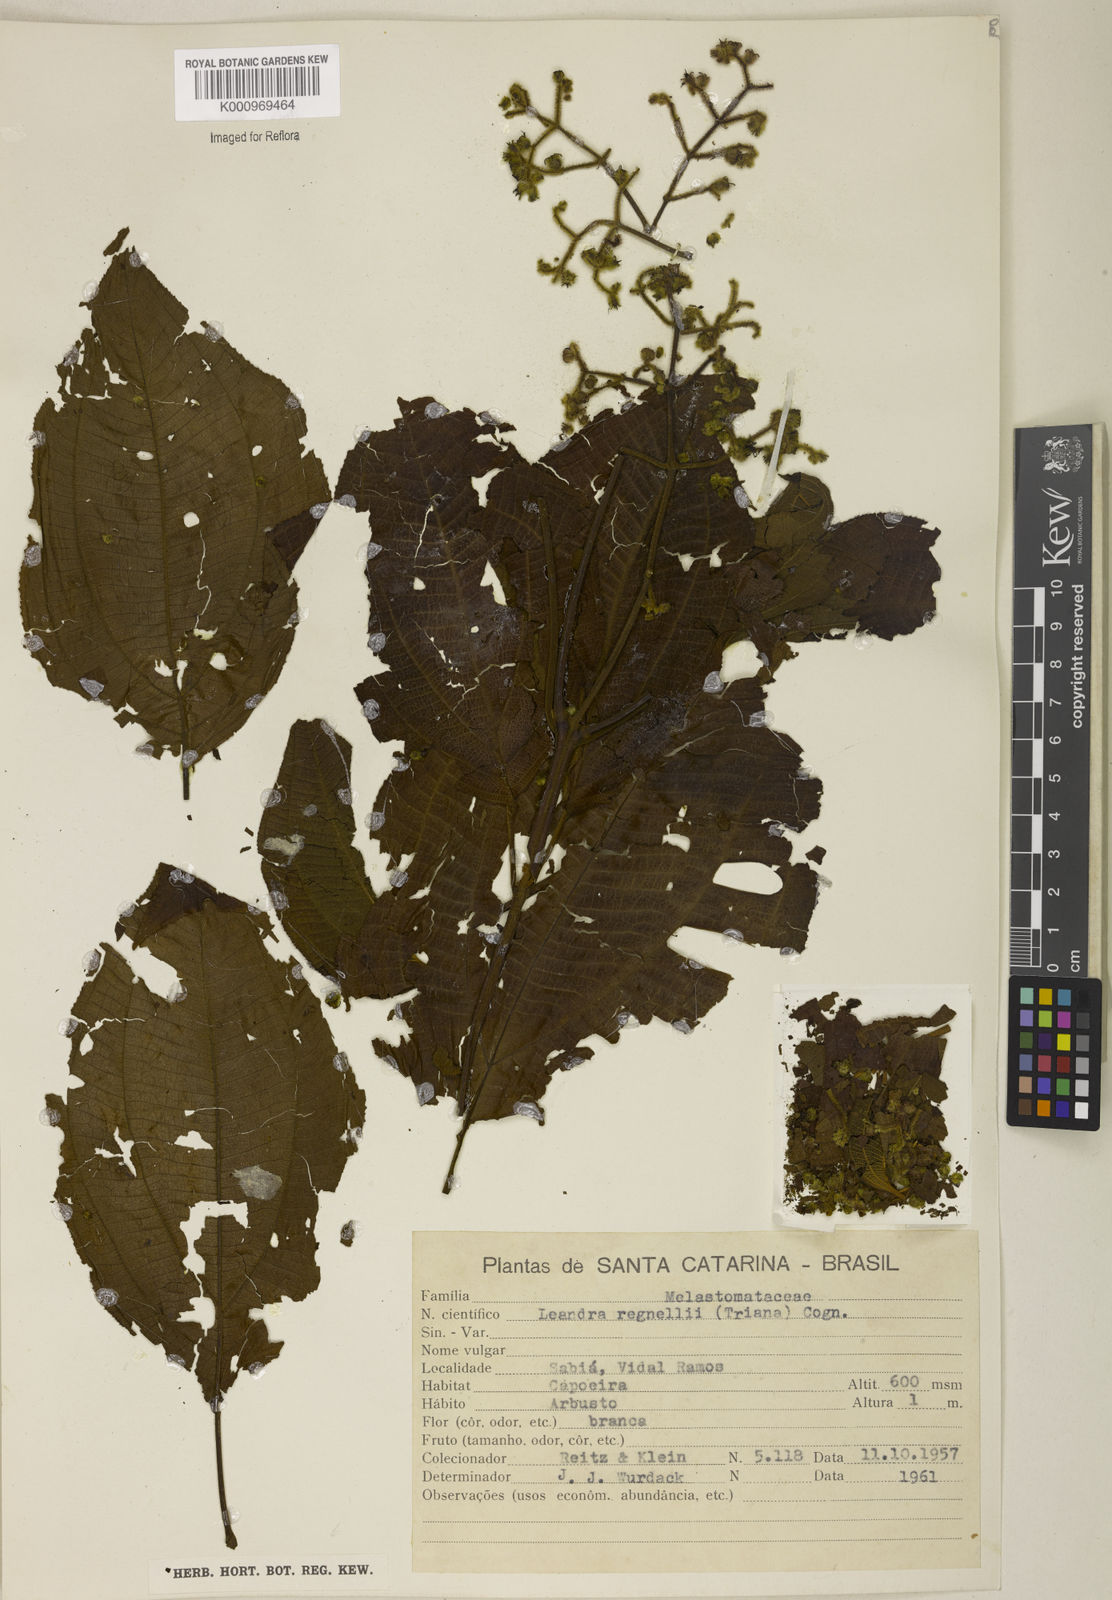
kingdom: Plantae
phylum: Tracheophyta
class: Magnoliopsida
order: Myrtales
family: Melastomataceae
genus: Miconia
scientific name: Miconia alterninervia
